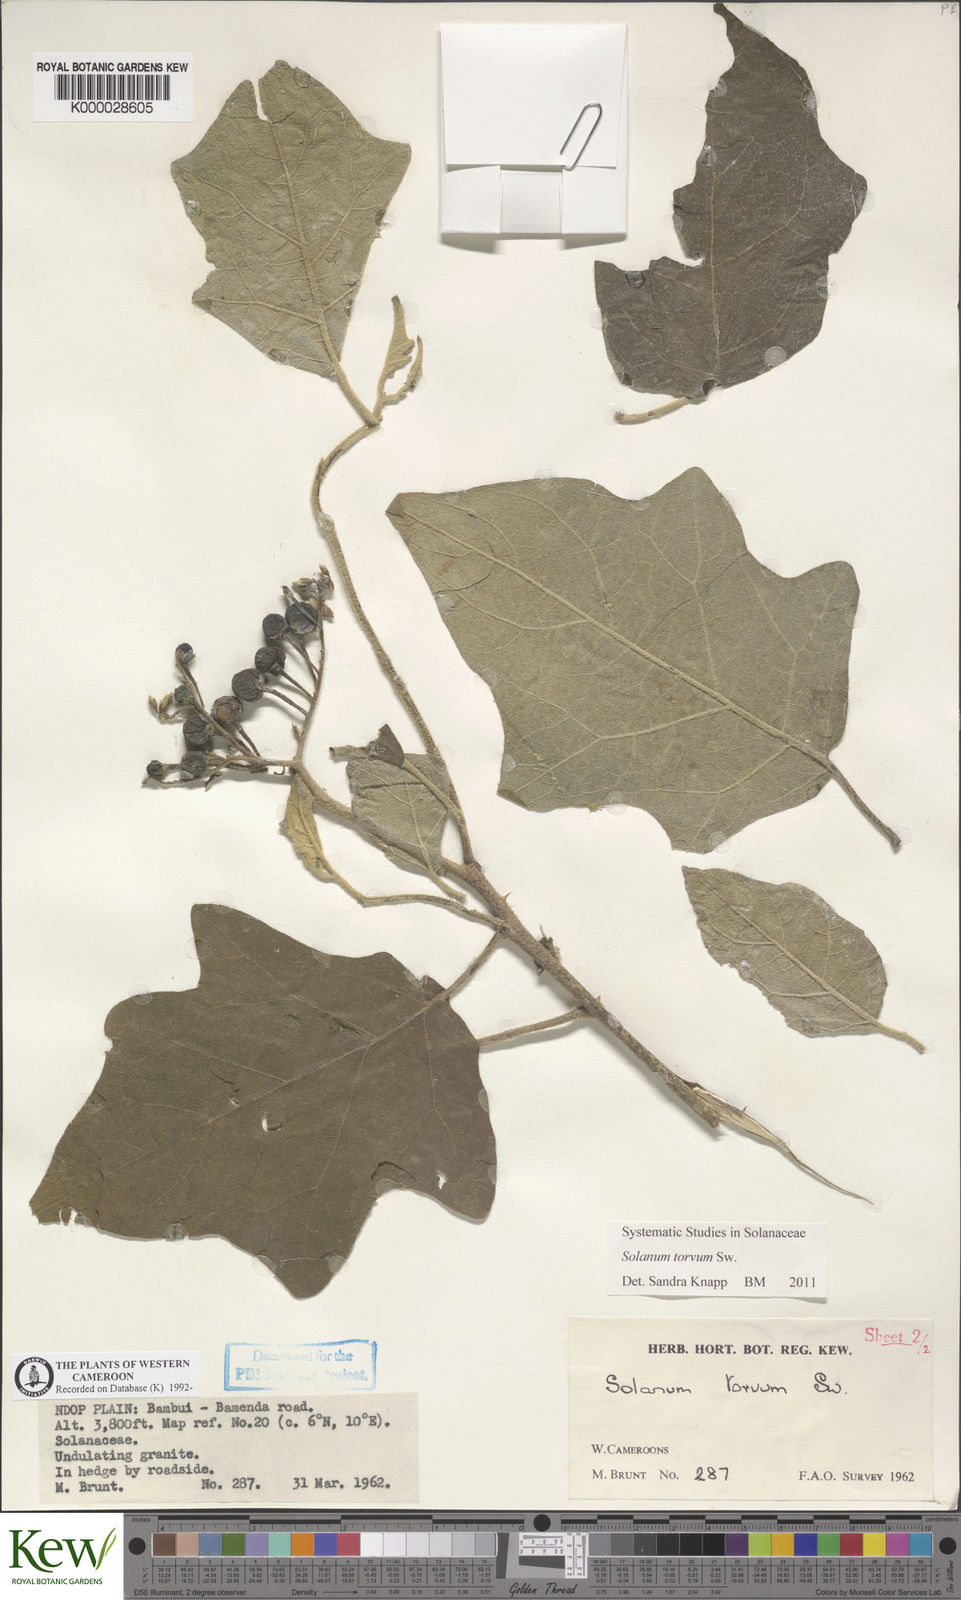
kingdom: Plantae
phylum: Tracheophyta
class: Magnoliopsida
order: Solanales
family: Solanaceae
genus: Solanum
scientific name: Solanum torvum
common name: Turkey berry
